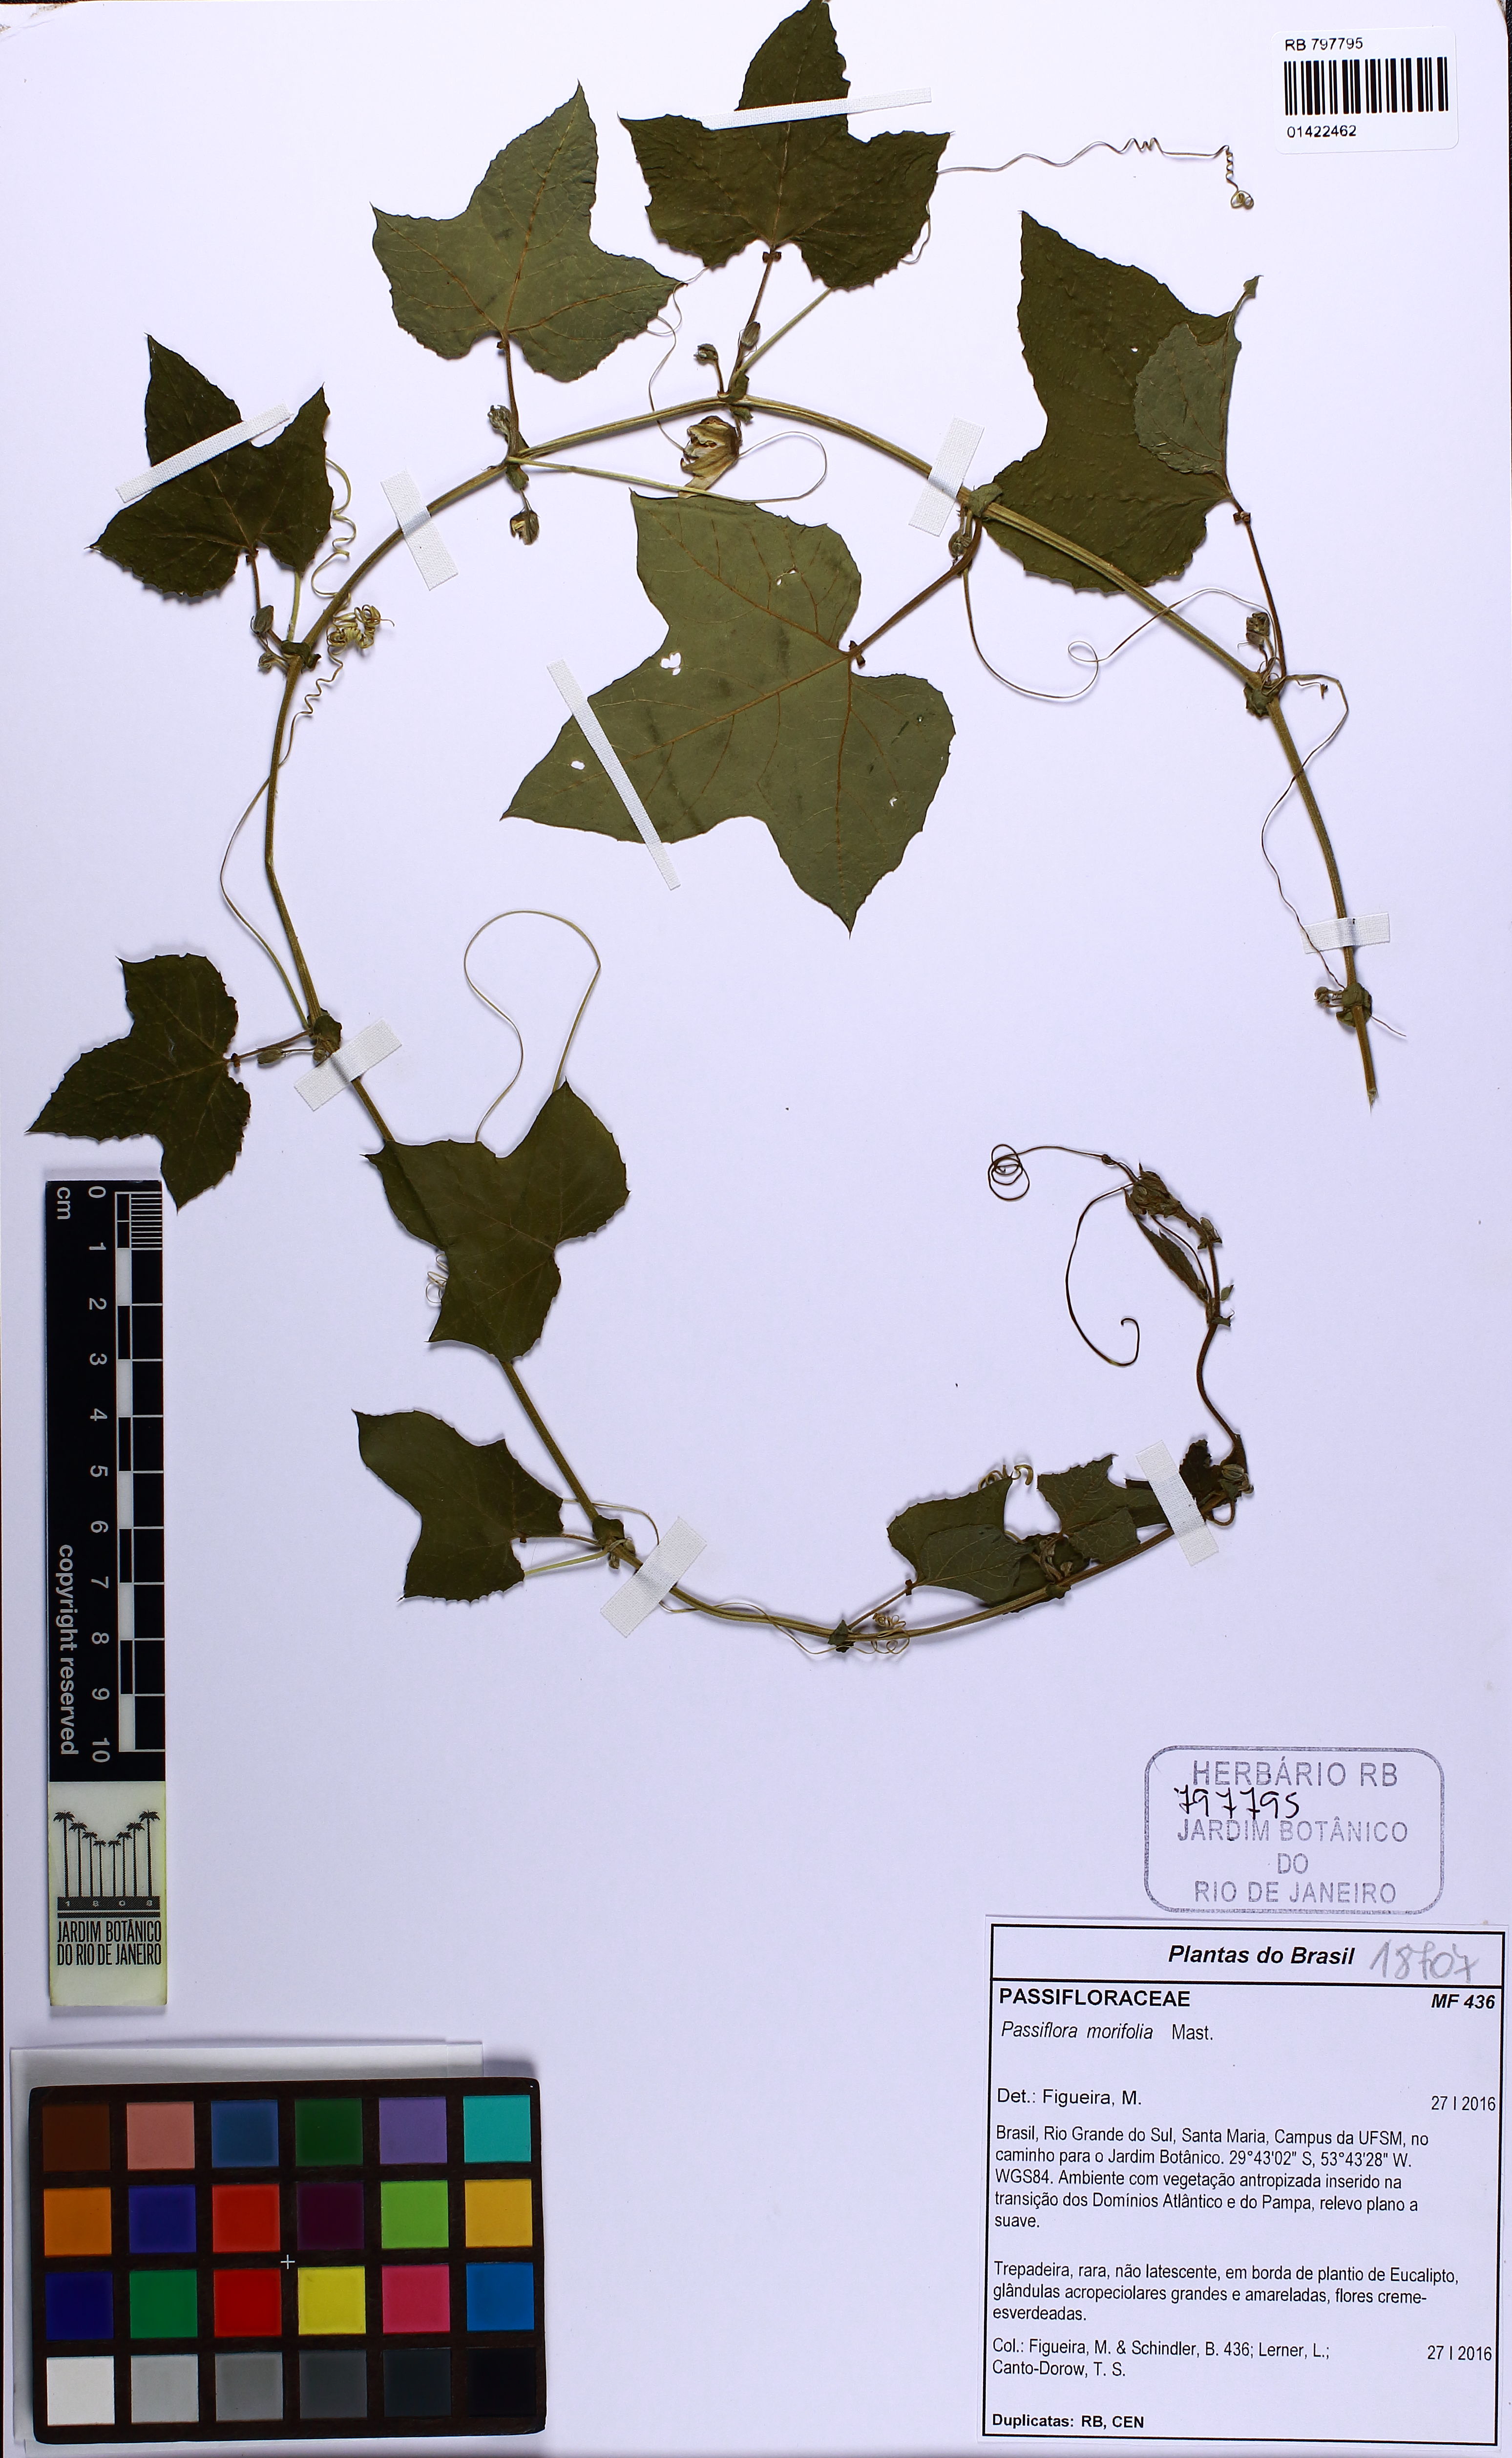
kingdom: Plantae
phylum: Tracheophyta
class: Magnoliopsida
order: Malpighiales
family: Passifloraceae
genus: Passiflora
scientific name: Passiflora morifolia
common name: Woodland passionflower
